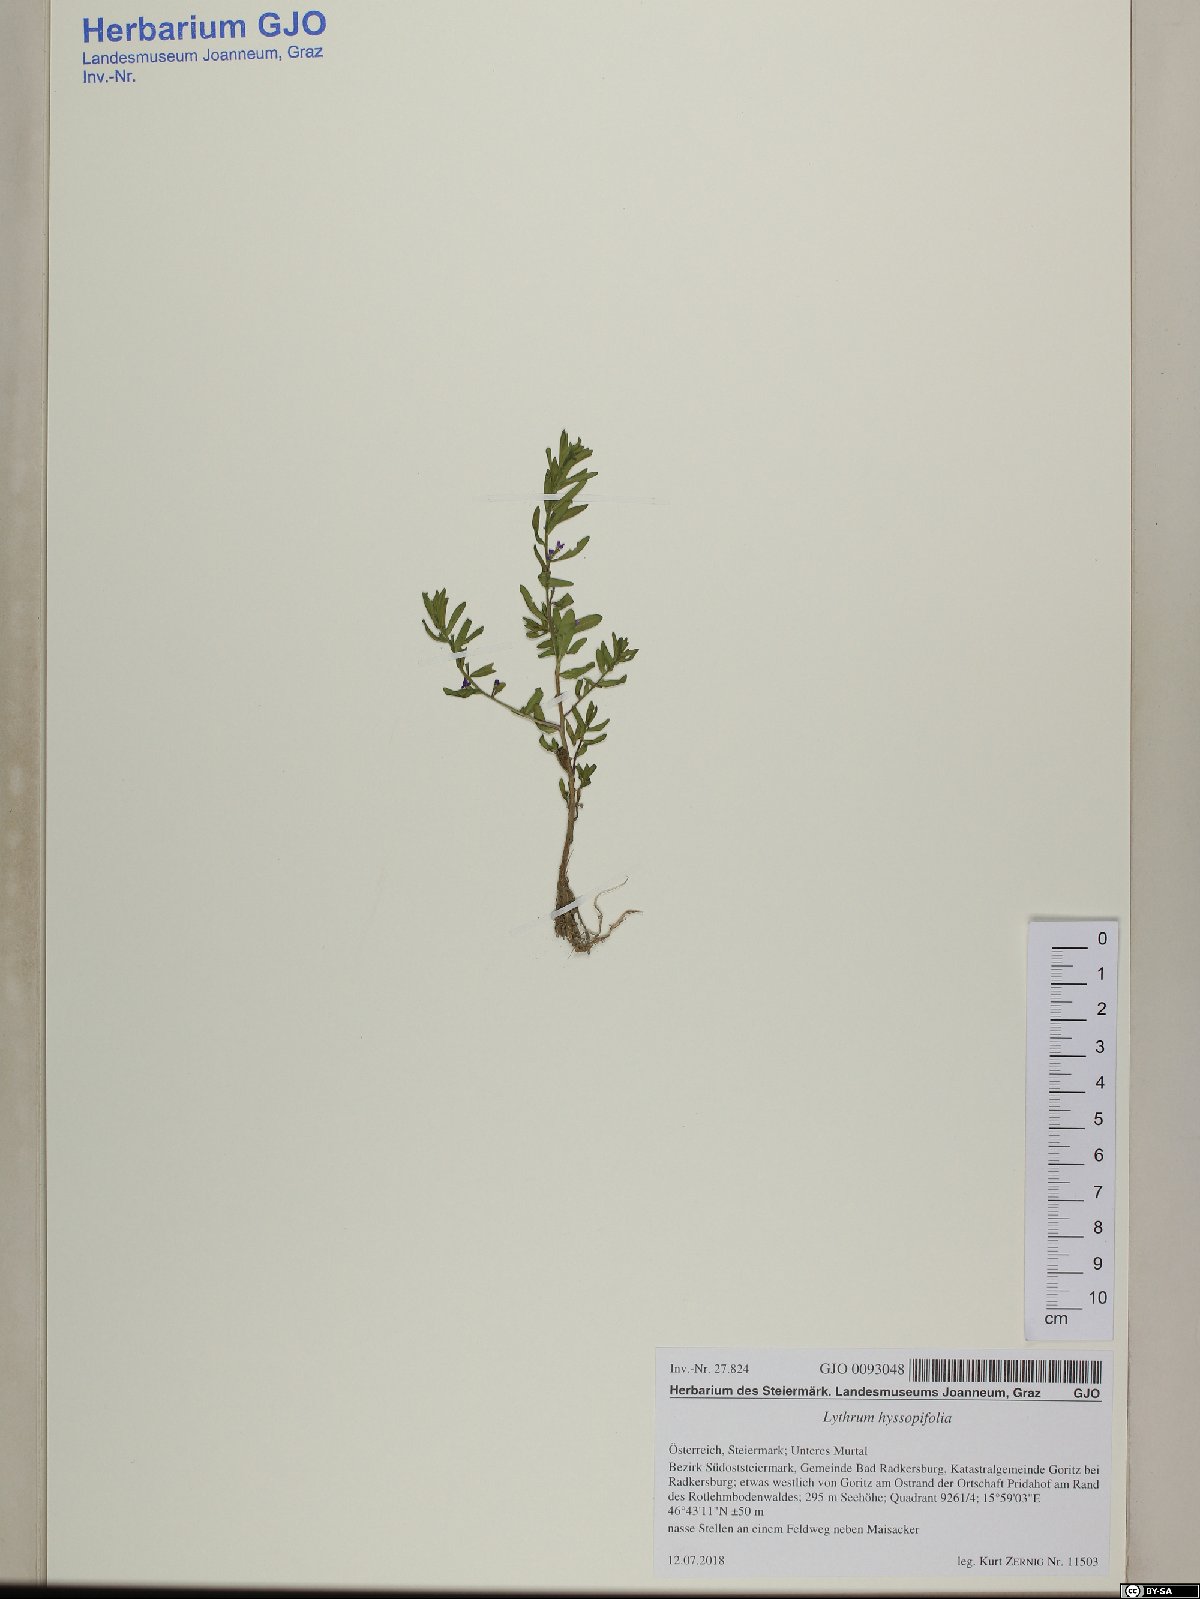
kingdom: Plantae
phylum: Tracheophyta
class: Magnoliopsida
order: Myrtales
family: Lythraceae
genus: Lythrum
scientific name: Lythrum hyssopifolia
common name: Grass-poly
